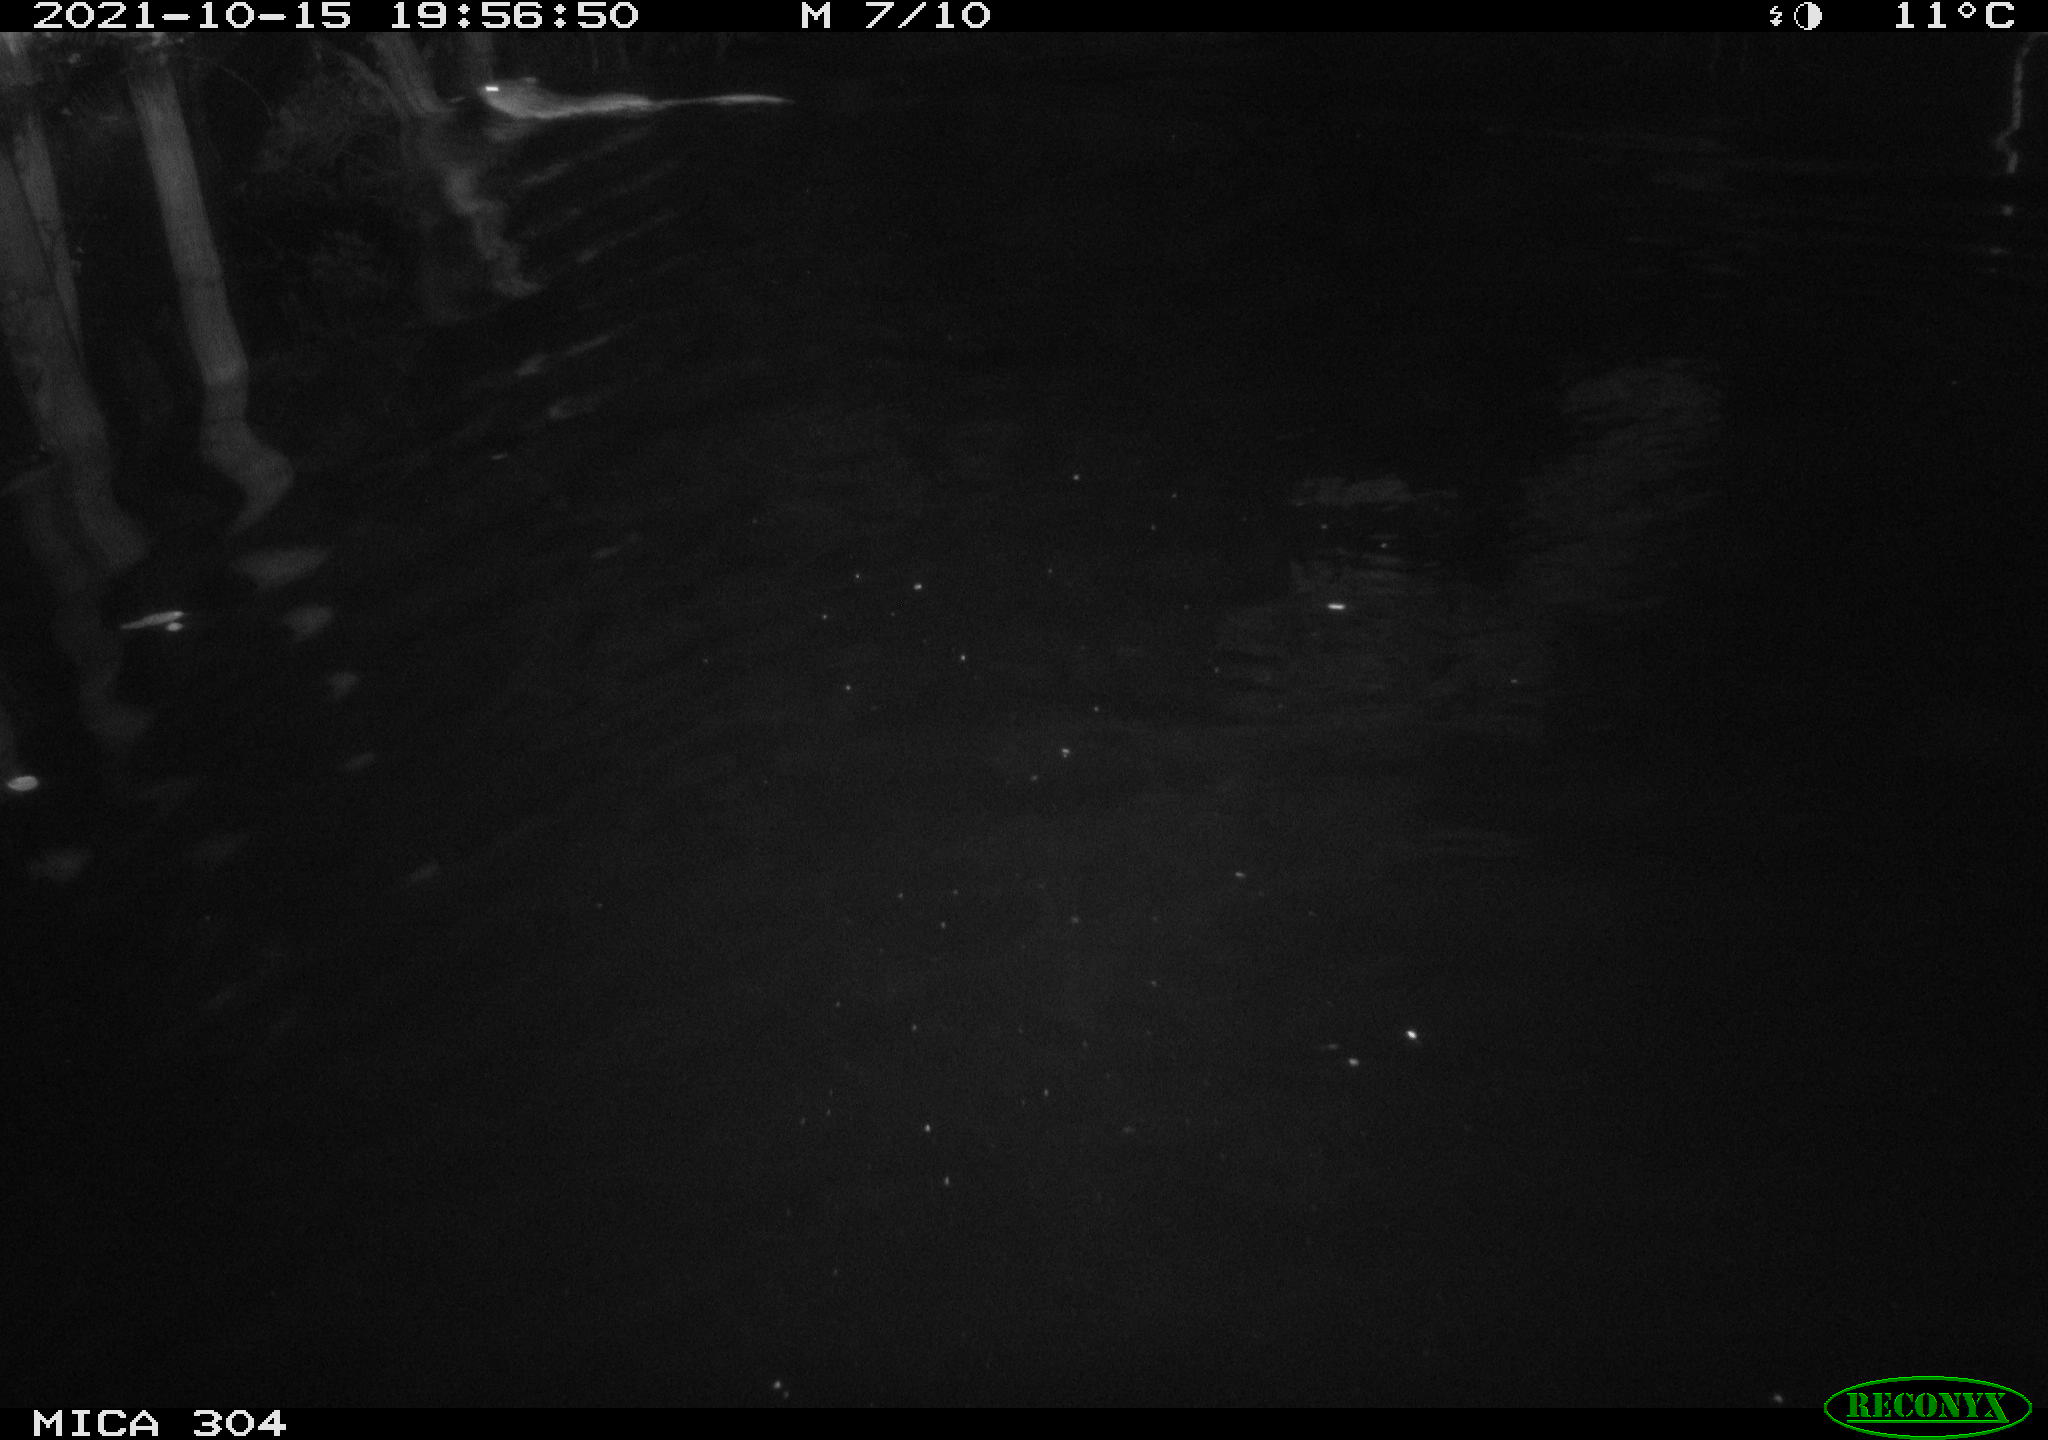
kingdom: Animalia
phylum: Chordata
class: Mammalia
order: Rodentia
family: Cricetidae
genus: Ondatra
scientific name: Ondatra zibethicus
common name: Muskrat
